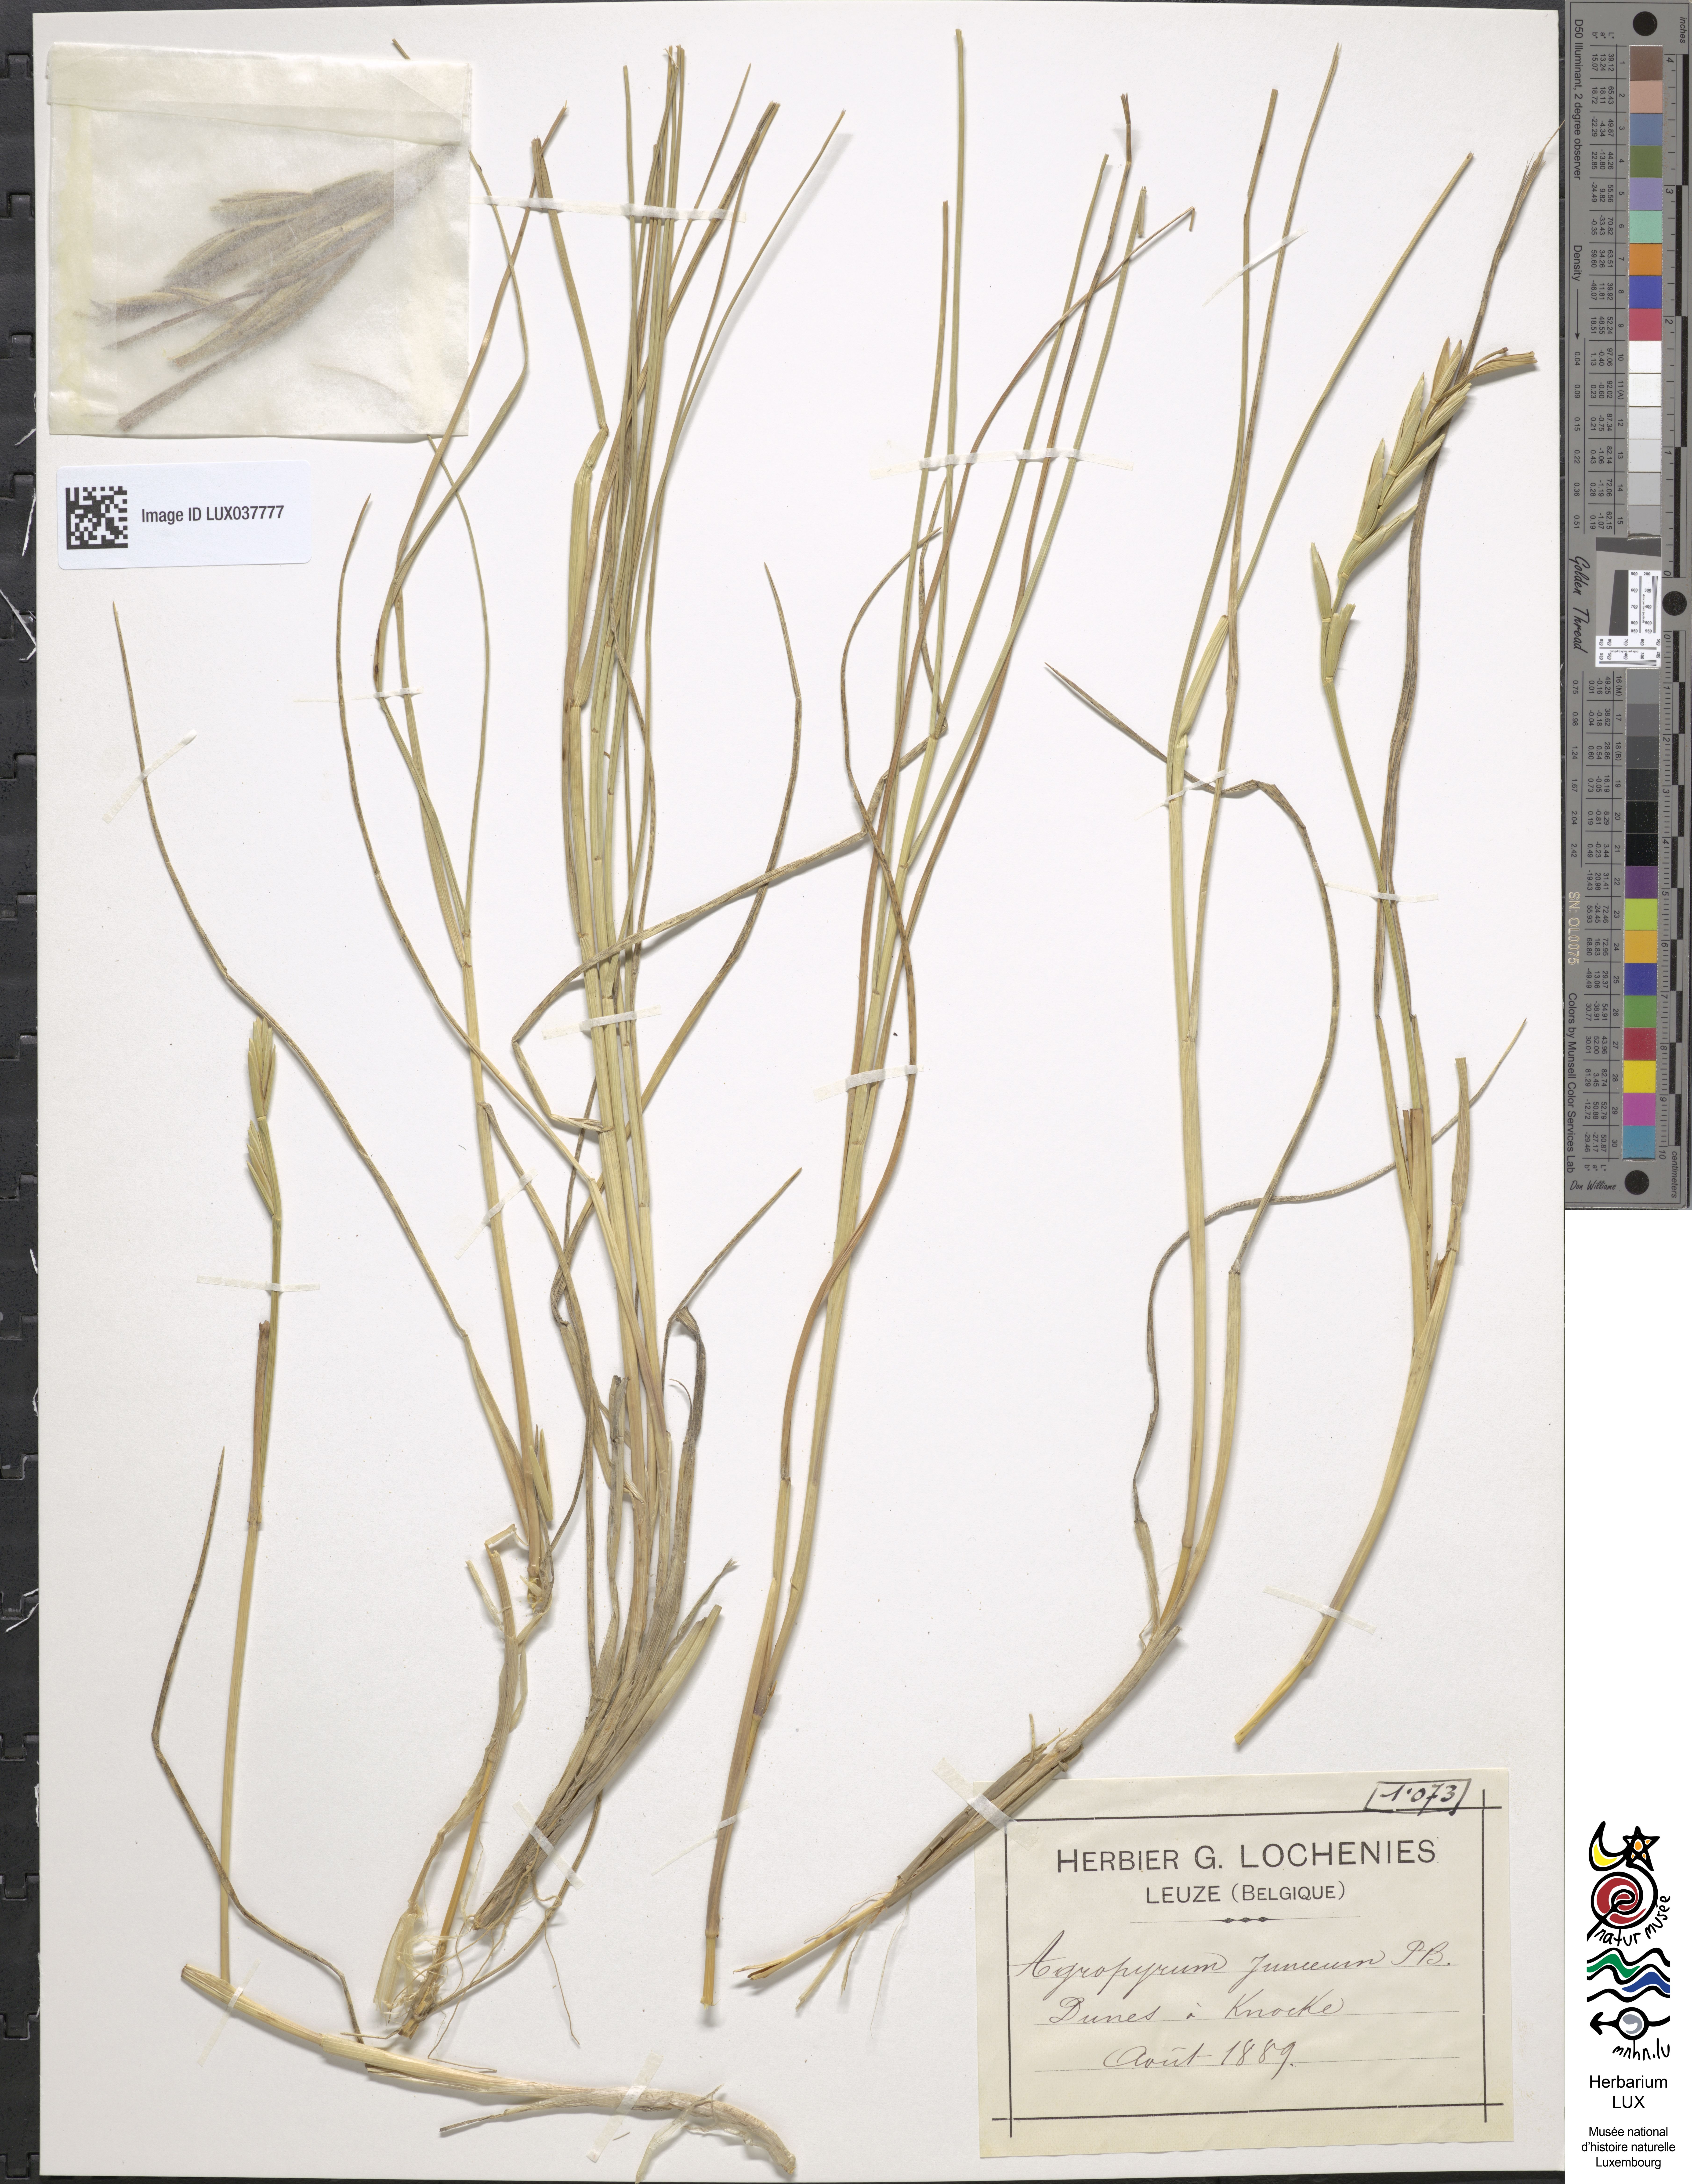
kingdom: Plantae
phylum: Tracheophyta
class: Liliopsida
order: Poales
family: Poaceae
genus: Thinopyrum
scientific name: Thinopyrum junceum
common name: Russian wheatgrass
